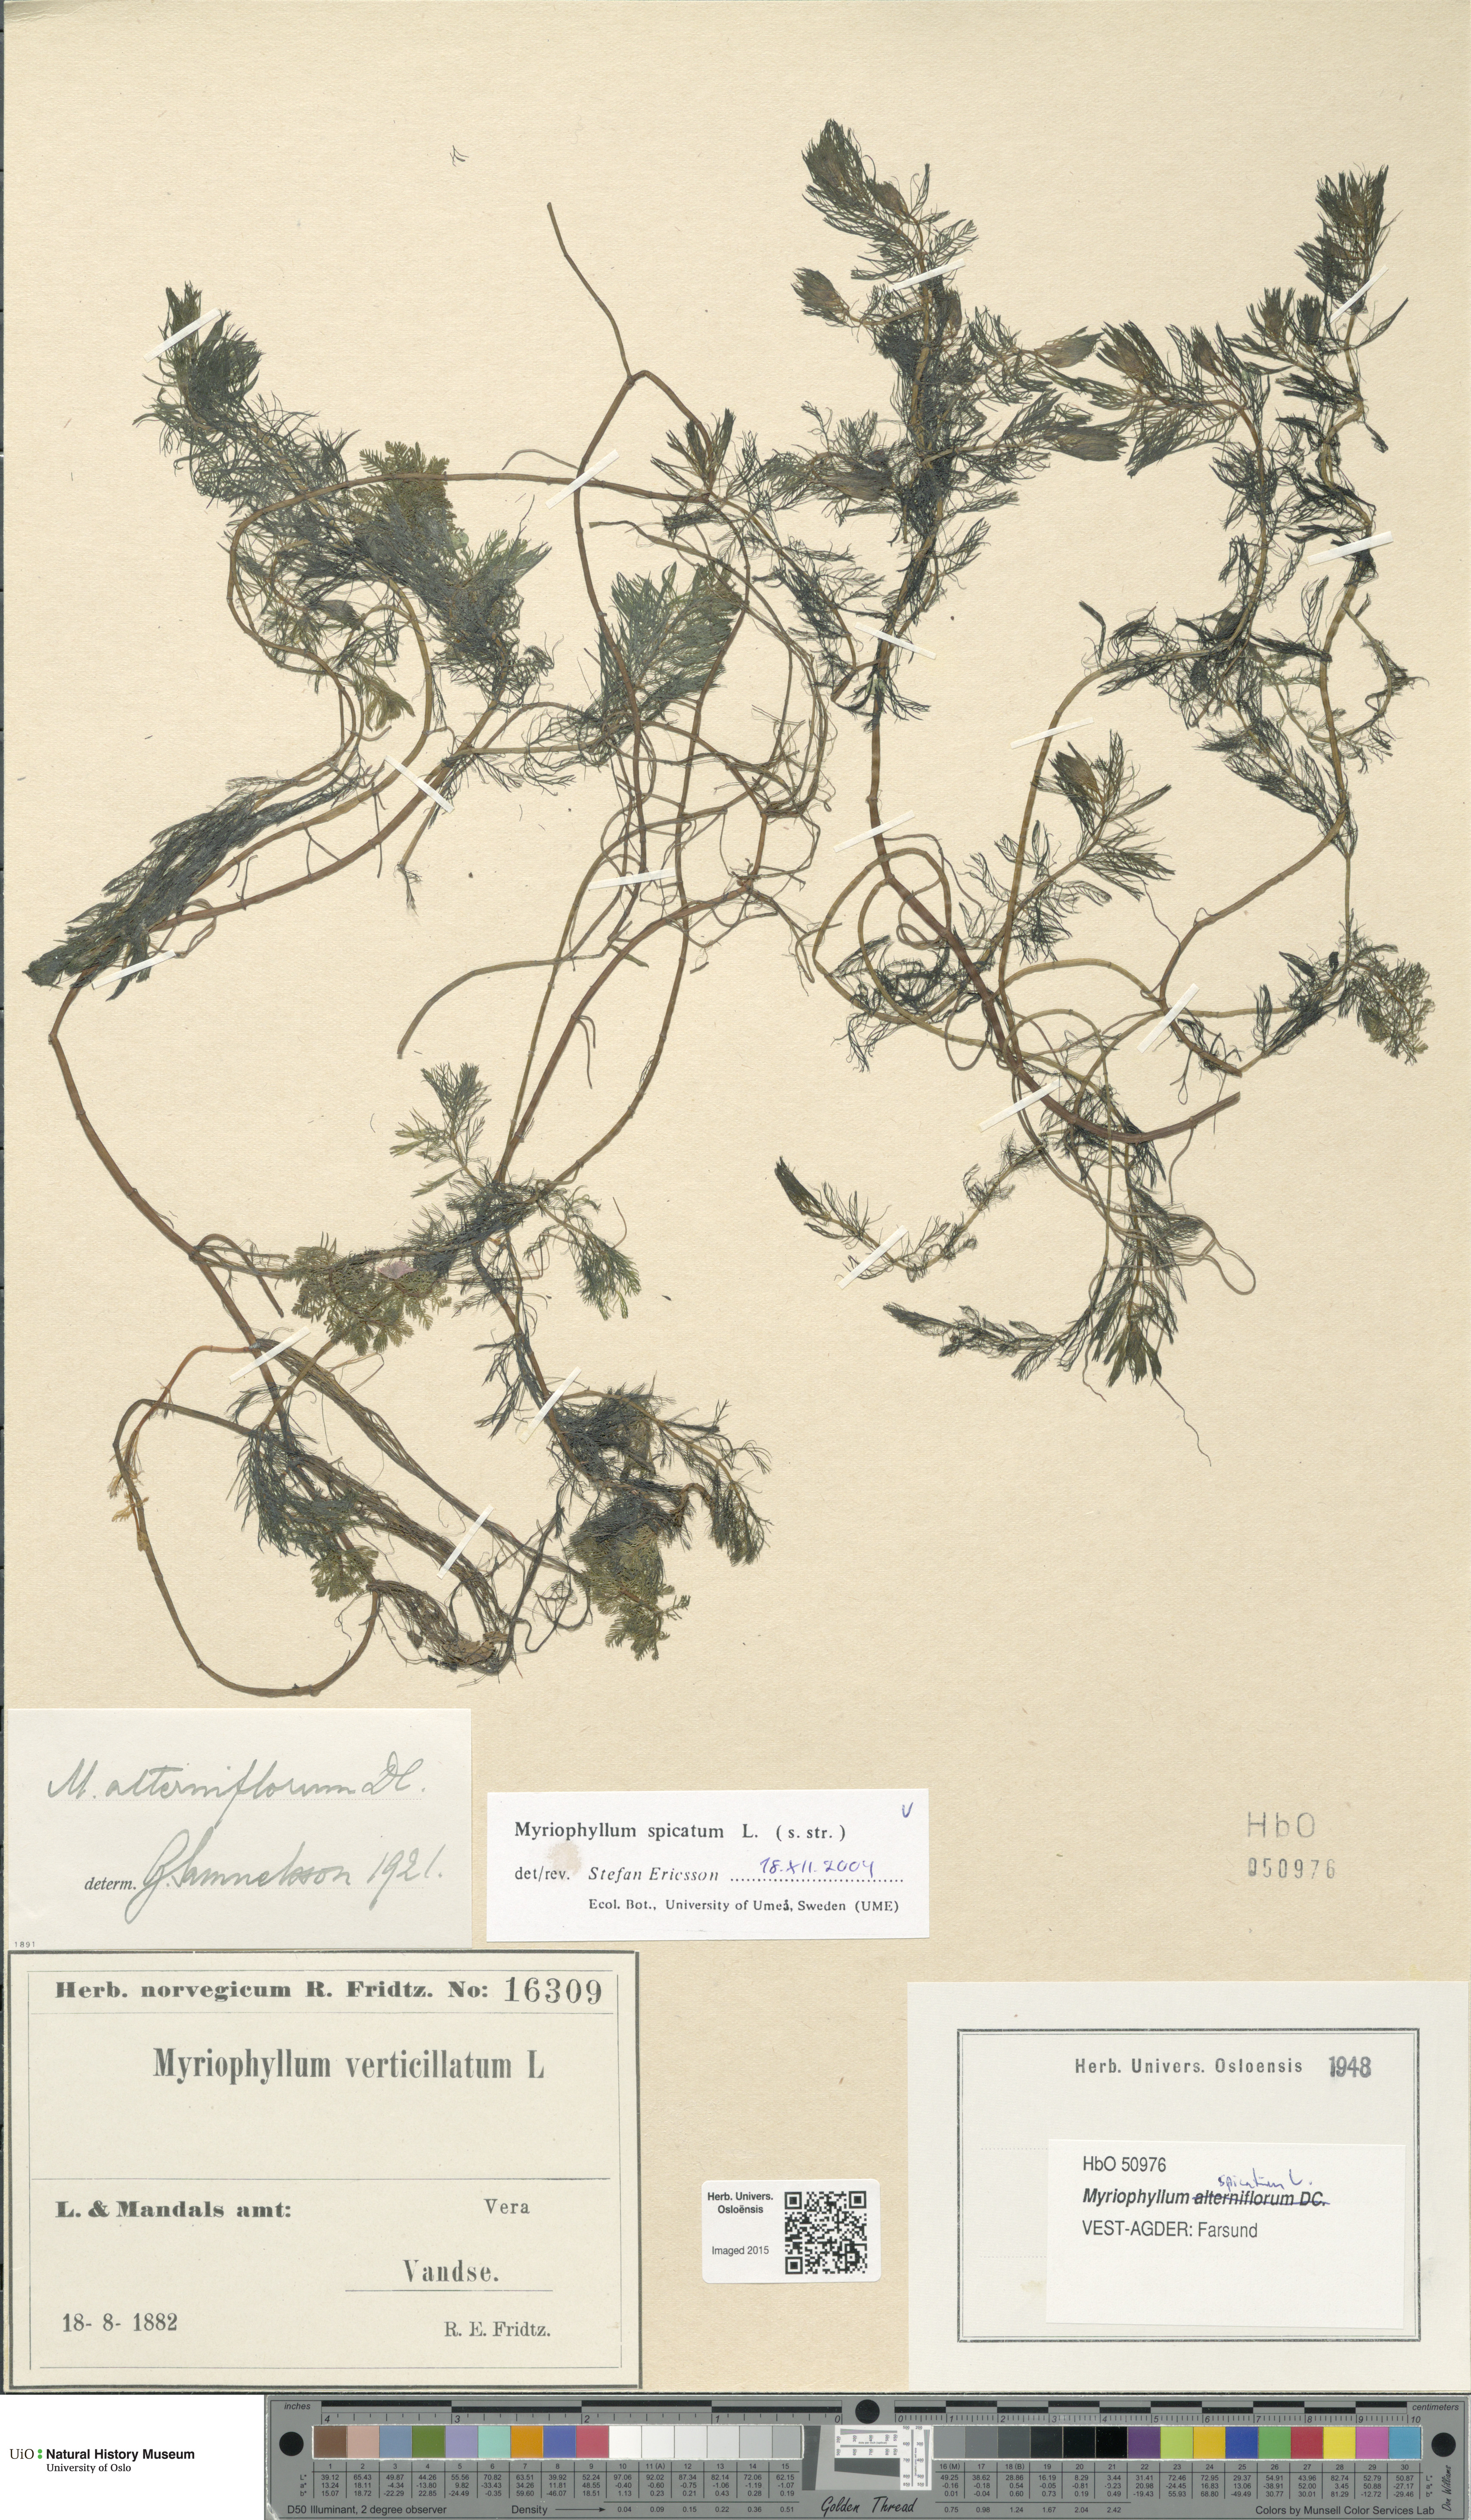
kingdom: Plantae
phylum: Tracheophyta
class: Magnoliopsida
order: Saxifragales
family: Haloragaceae
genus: Myriophyllum
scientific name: Myriophyllum spicatum
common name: Spiked water-milfoil
